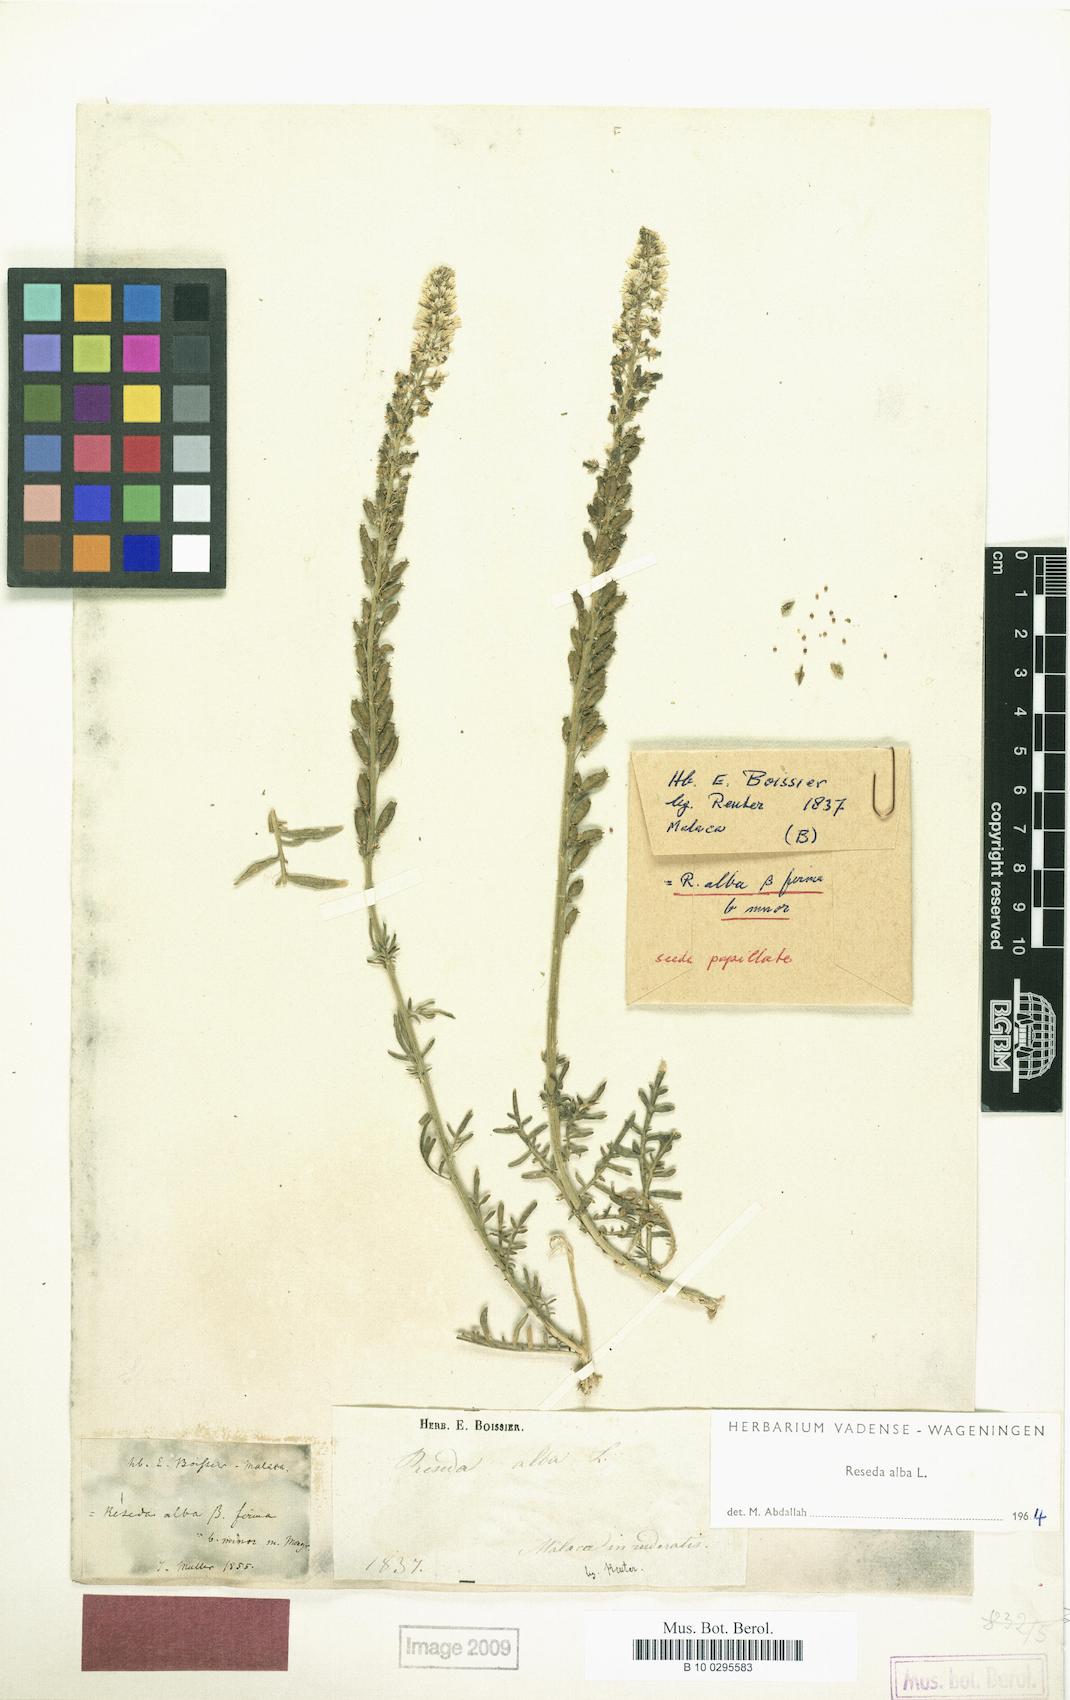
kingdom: Plantae
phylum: Tracheophyta
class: Magnoliopsida
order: Brassicales
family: Resedaceae
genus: Reseda
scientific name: Reseda alba
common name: White mignonette
